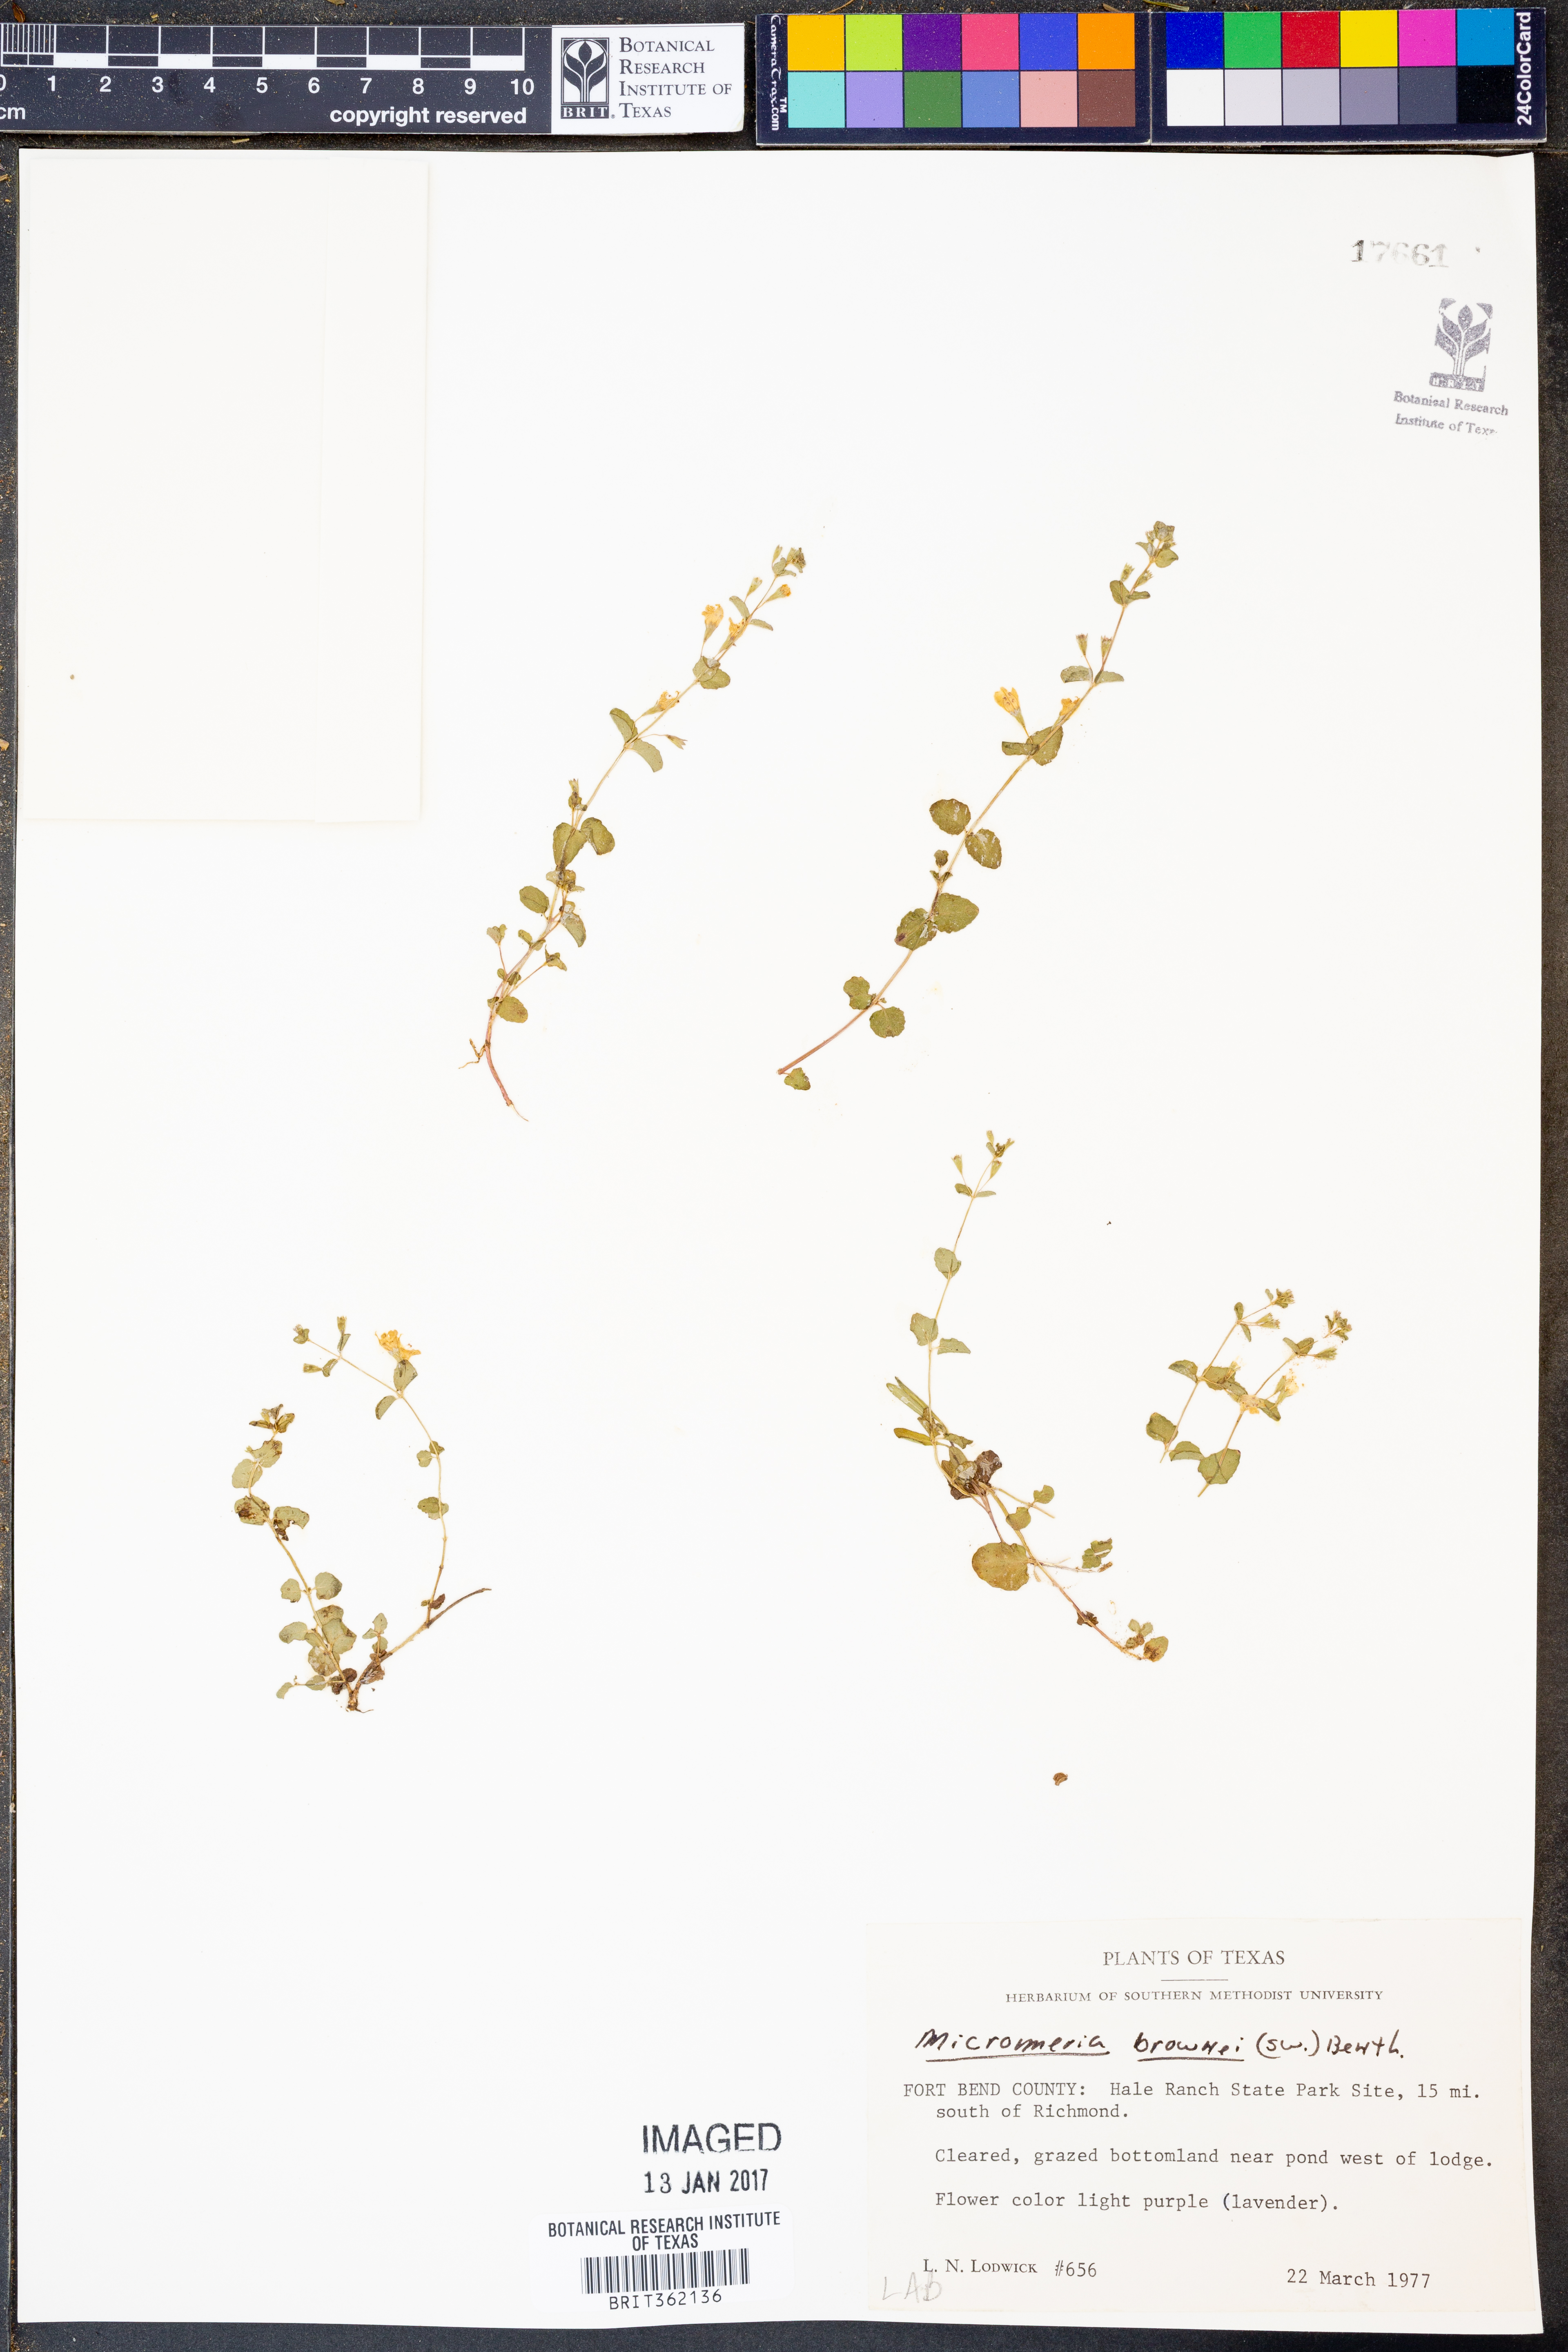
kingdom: Plantae
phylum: Tracheophyta
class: Magnoliopsida
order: Lamiales
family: Lamiaceae
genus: Clinopodium
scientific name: Clinopodium brownei
